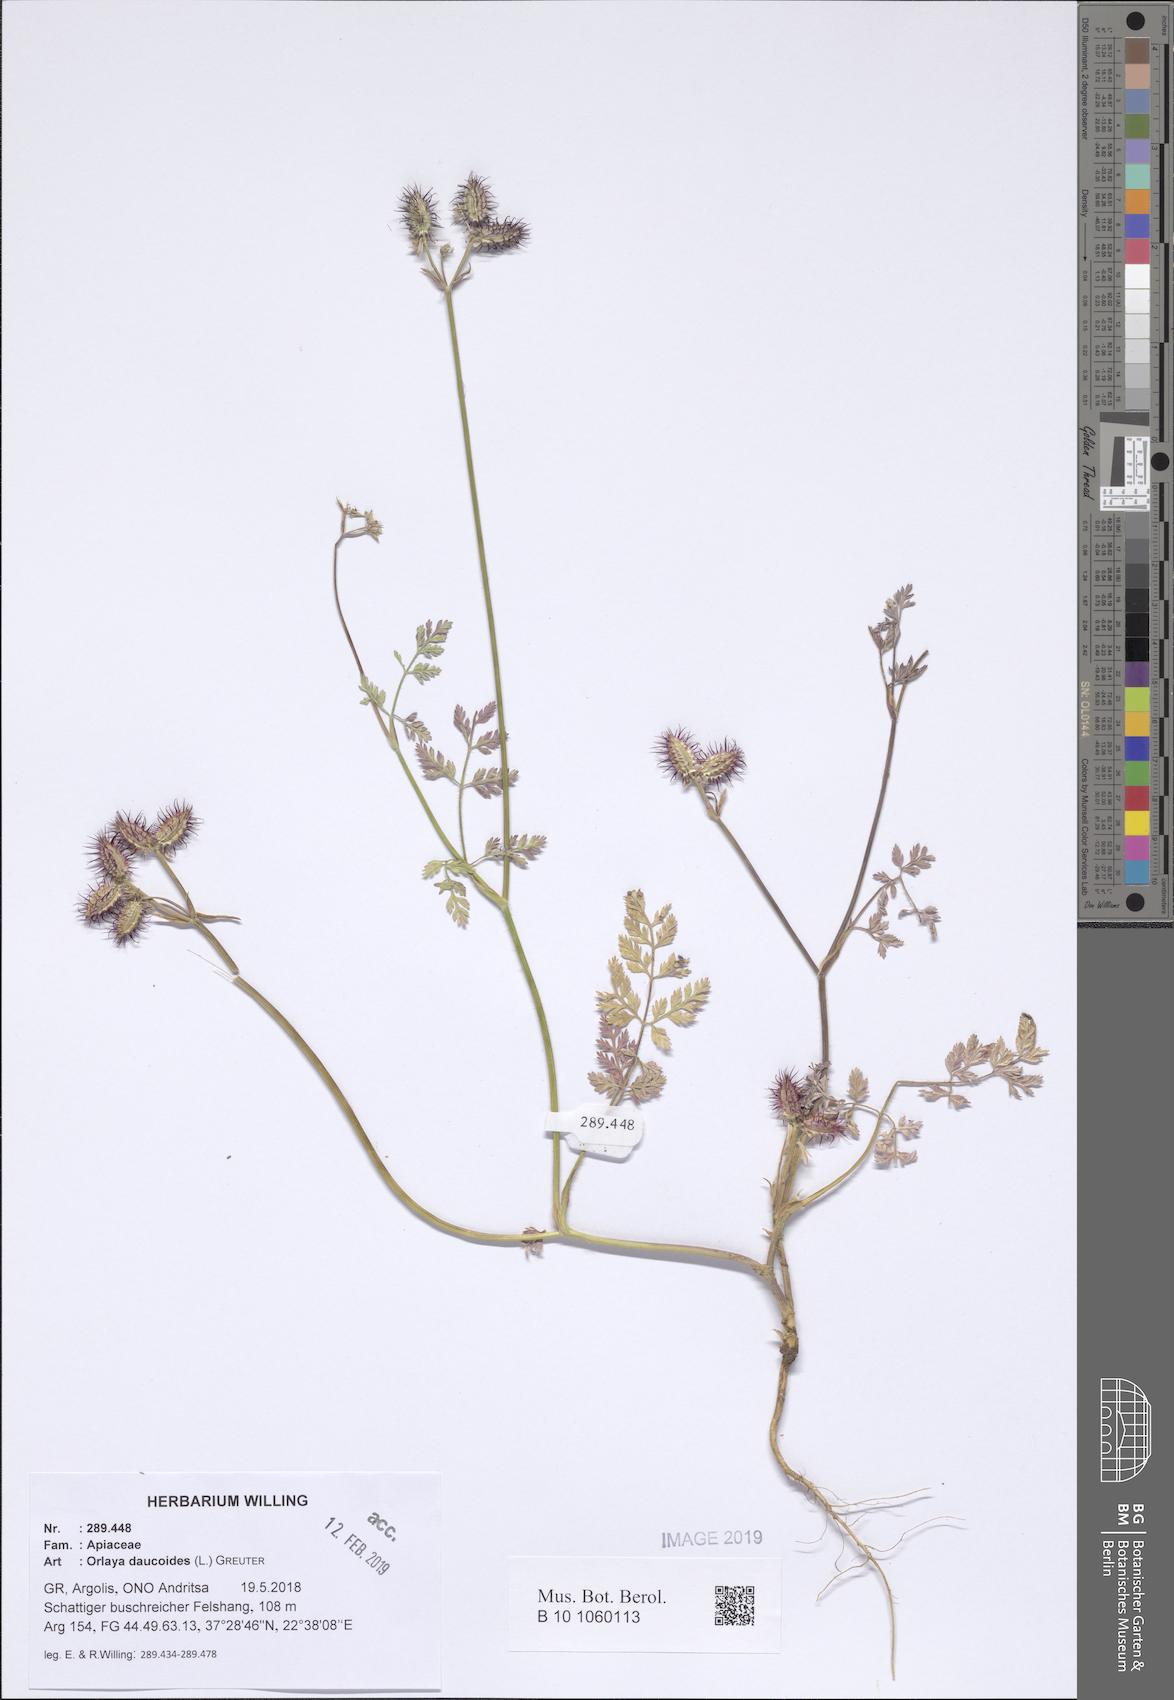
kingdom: Plantae
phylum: Tracheophyta
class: Magnoliopsida
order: Apiales
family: Apiaceae
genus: Orlaya
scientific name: Orlaya daucoides
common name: Flat-fruit orlaya
